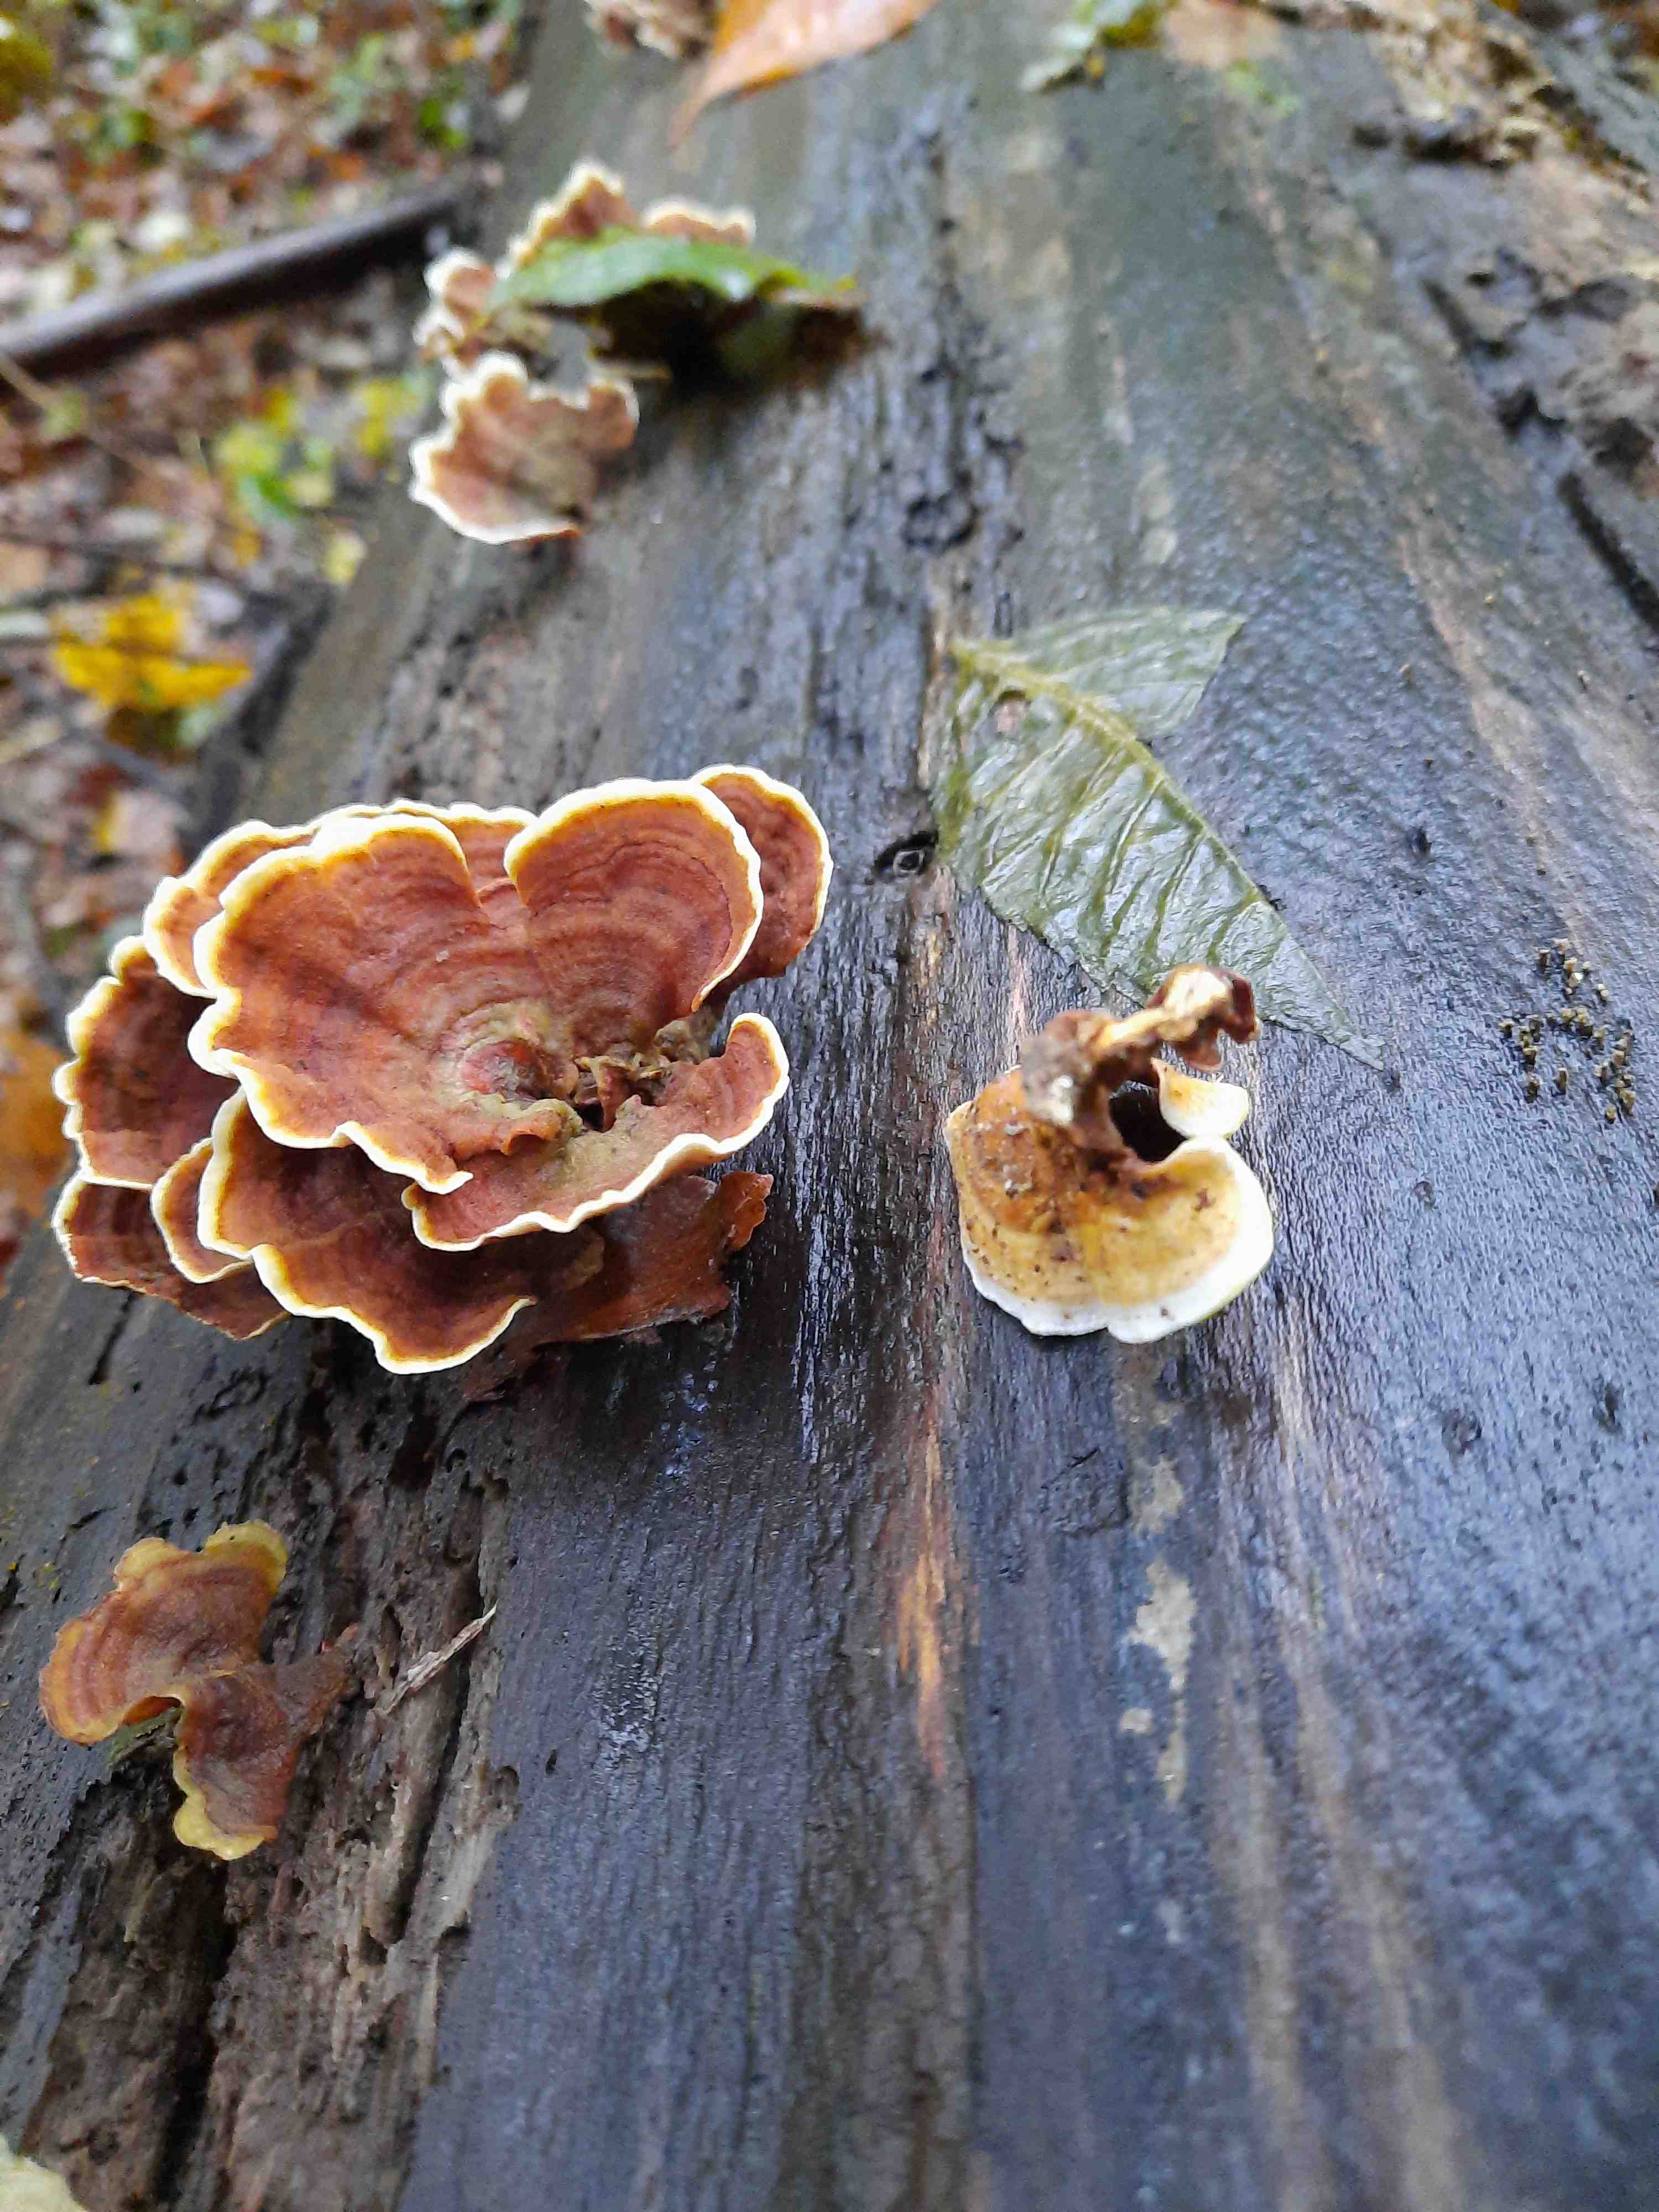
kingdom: Fungi
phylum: Basidiomycota
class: Agaricomycetes
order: Russulales
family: Stereaceae
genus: Stereum
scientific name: Stereum subtomentosum
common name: smuk lædersvamp
